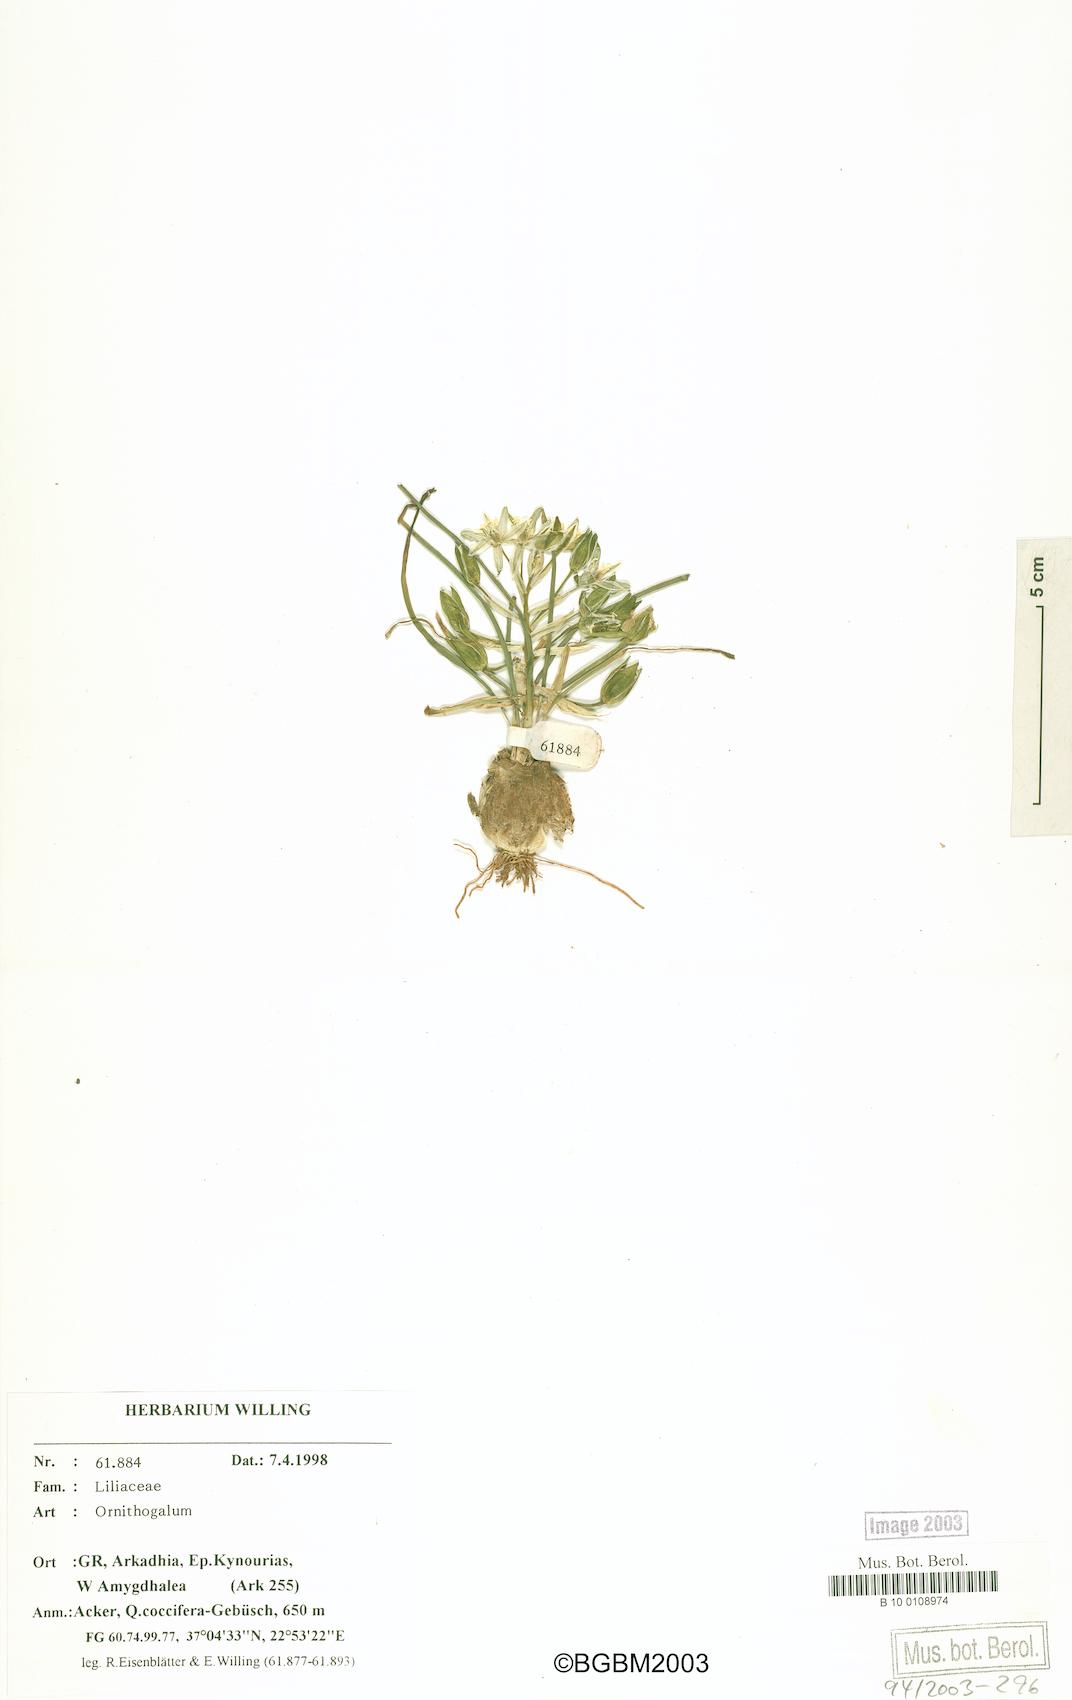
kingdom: Plantae
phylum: Tracheophyta
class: Liliopsida
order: Asparagales
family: Asparagaceae
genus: Ornithogalum
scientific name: Ornithogalum
